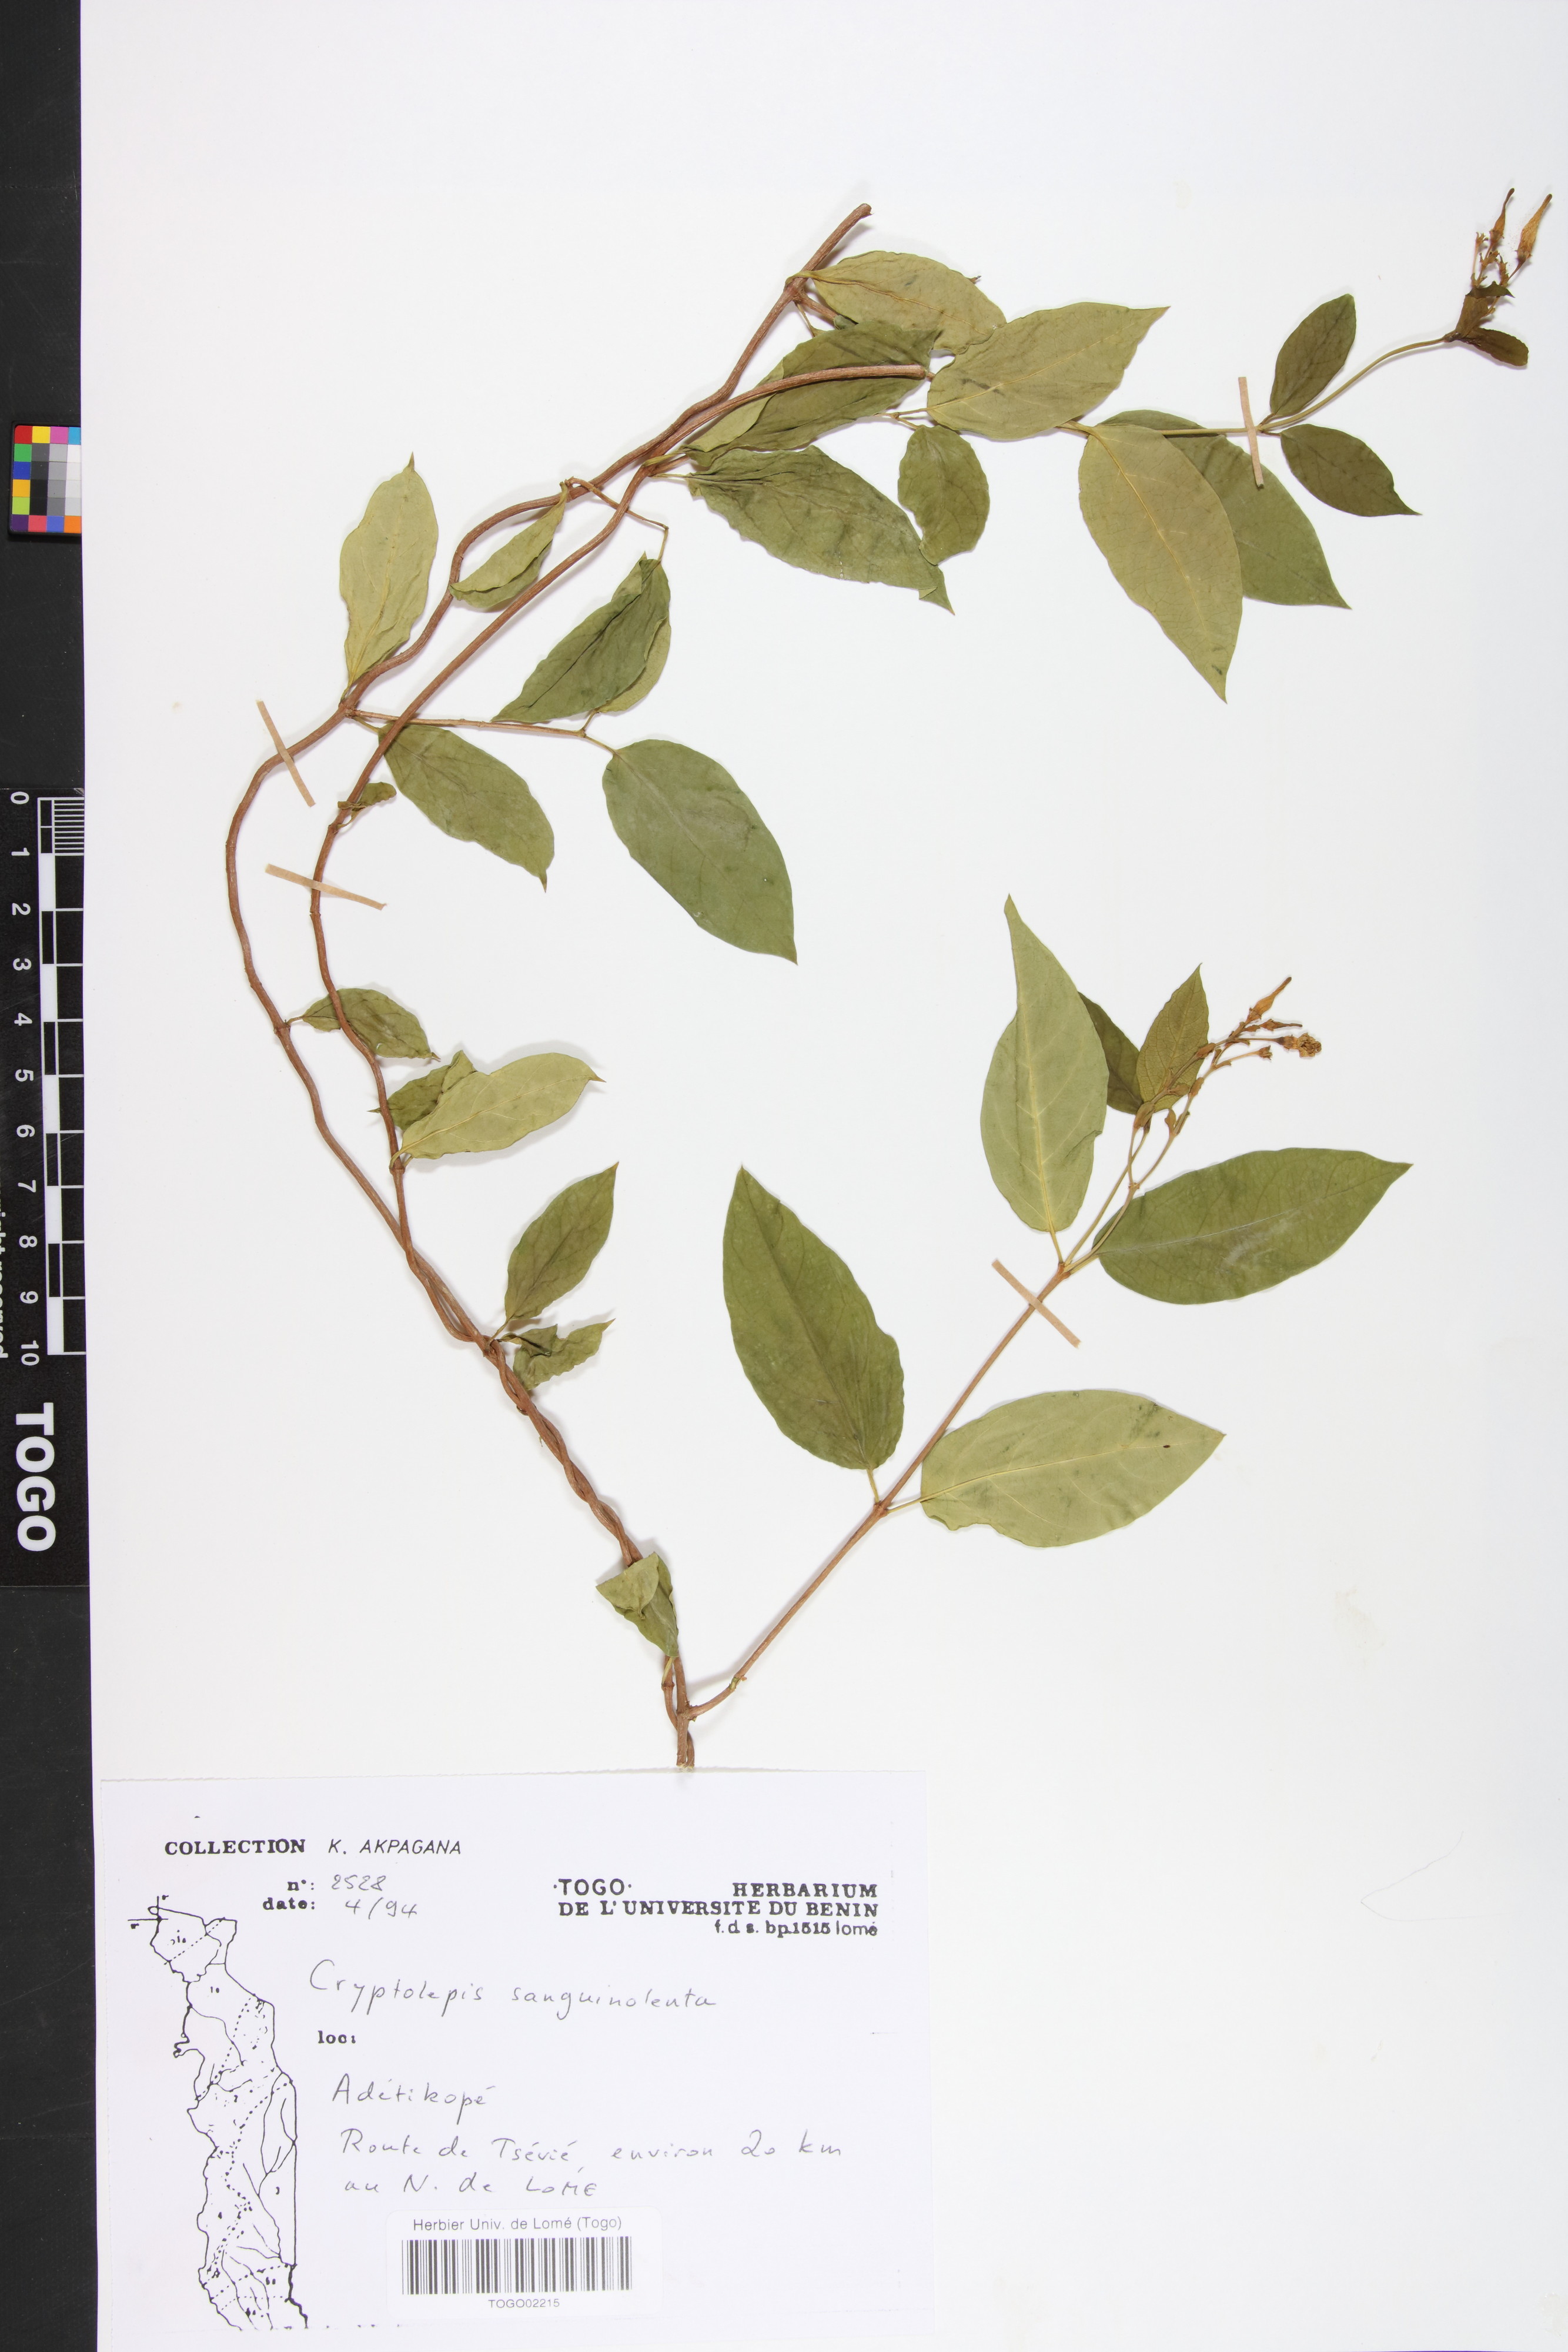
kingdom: Plantae
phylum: Tracheophyta
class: Magnoliopsida
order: Gentianales
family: Apocynaceae
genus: Cryptolepis
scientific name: Cryptolepis sanguinolenta
